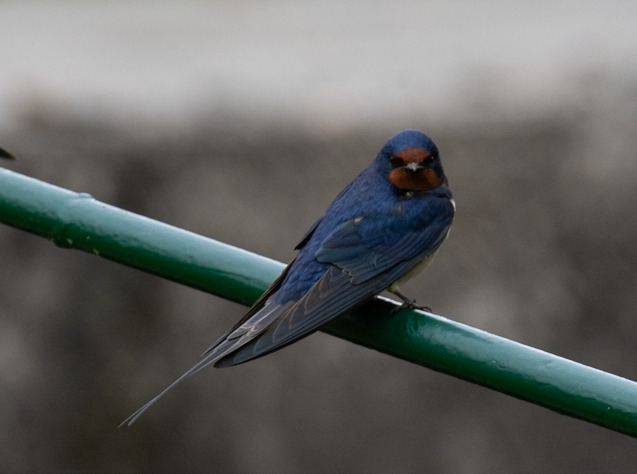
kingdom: Animalia
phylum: Chordata
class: Aves
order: Passeriformes
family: Hirundinidae
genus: Hirundo
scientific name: Hirundo rustica
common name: Landsvale
